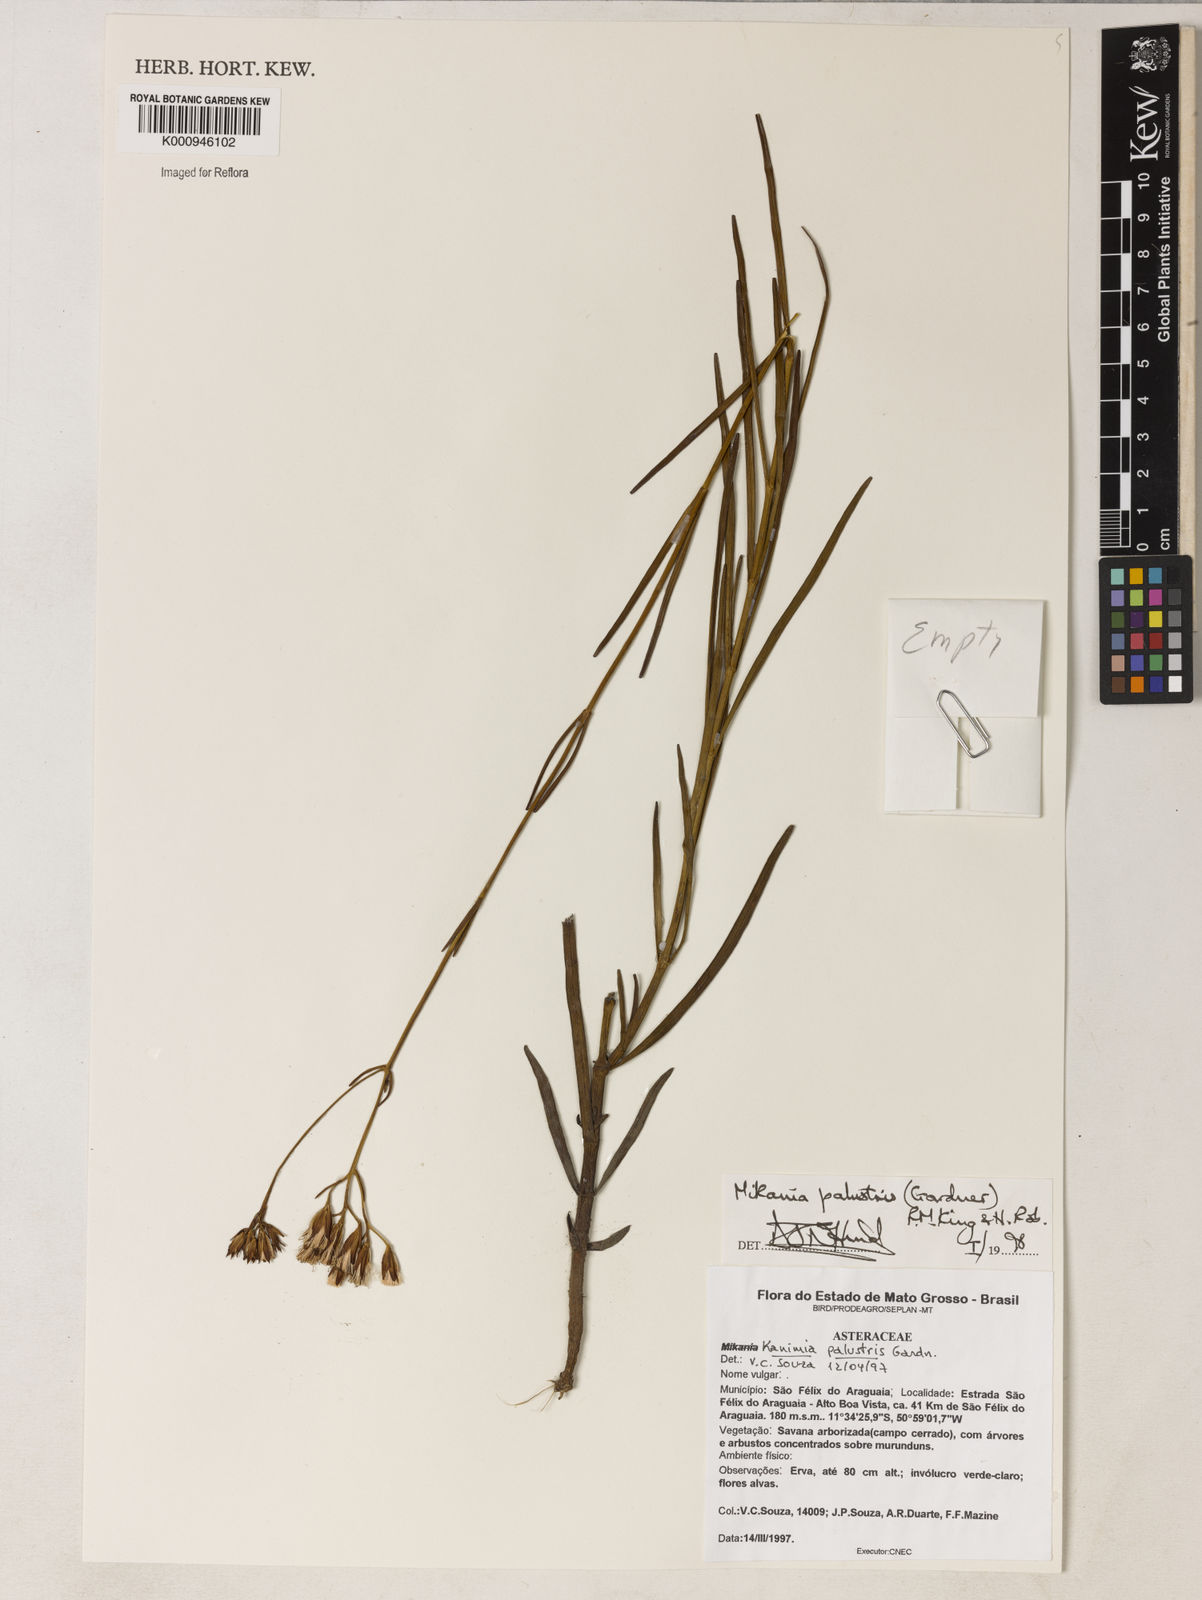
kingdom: Plantae
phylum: Tracheophyta
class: Magnoliopsida
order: Asterales
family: Asteraceae
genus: Mikania
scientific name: Mikania palustris
